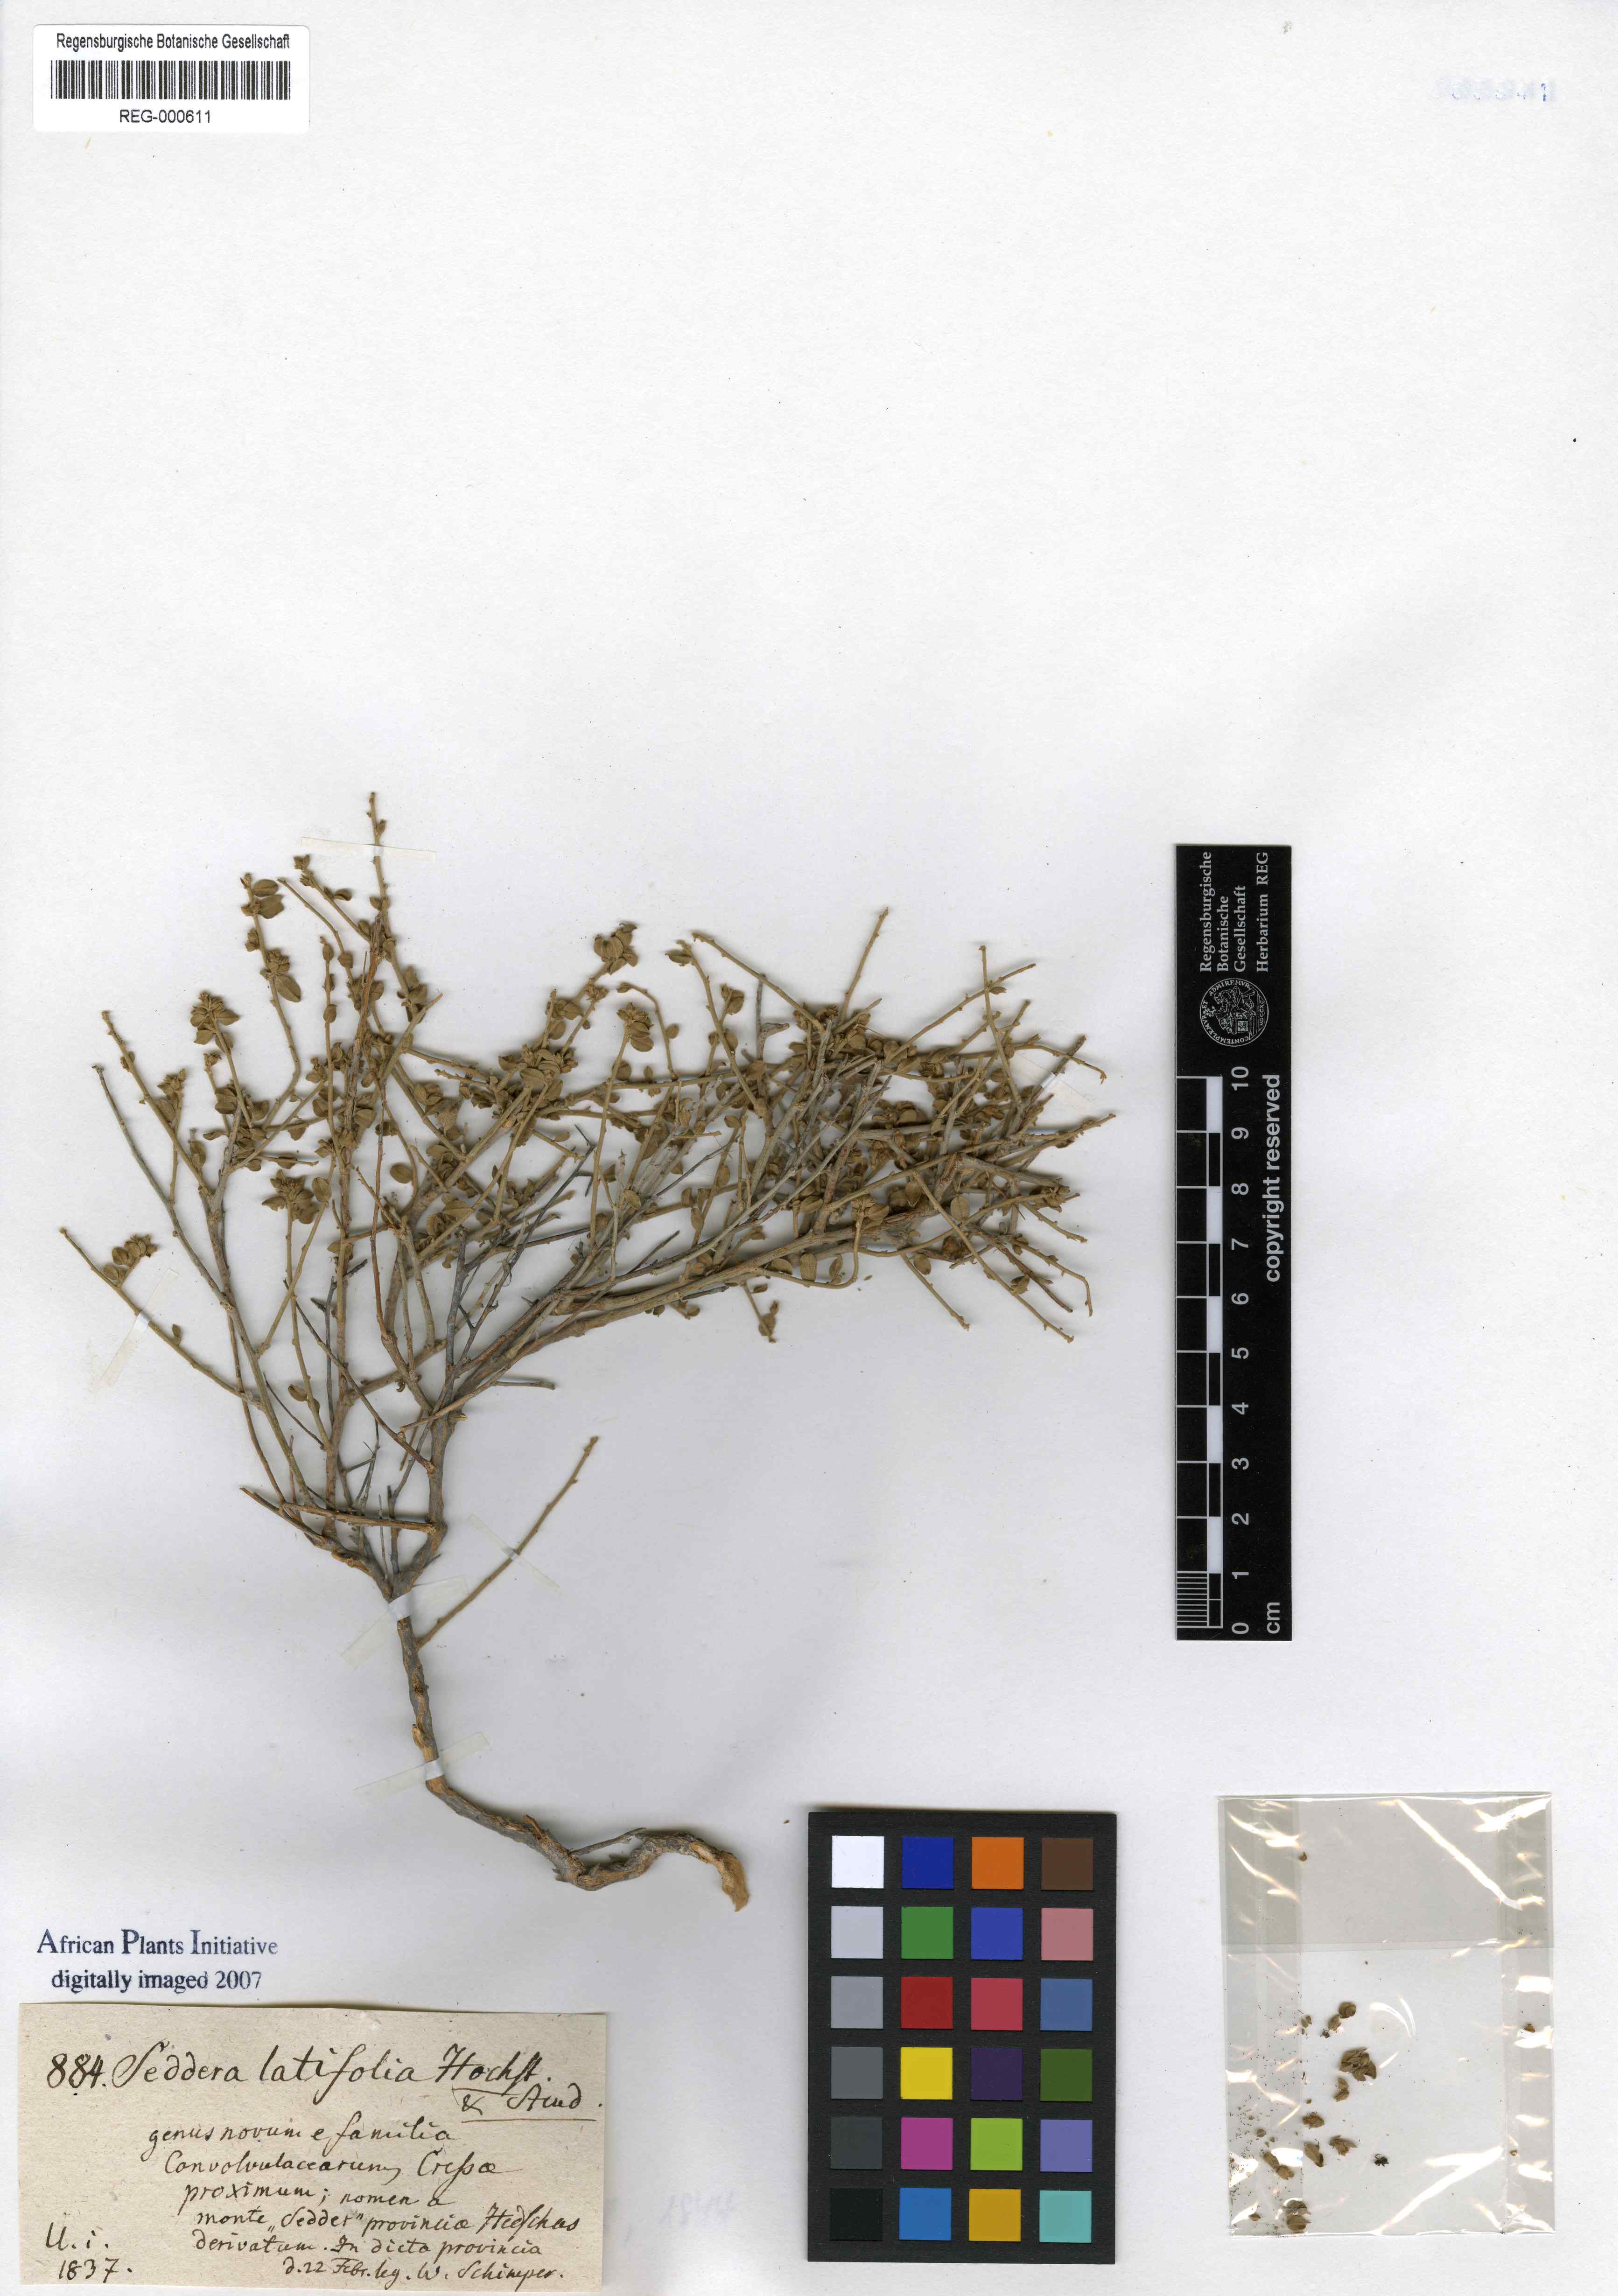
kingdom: Plantae
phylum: Tracheophyta
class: Magnoliopsida
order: Solanales
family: Convolvulaceae
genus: Seddera
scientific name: Seddera latifolia
